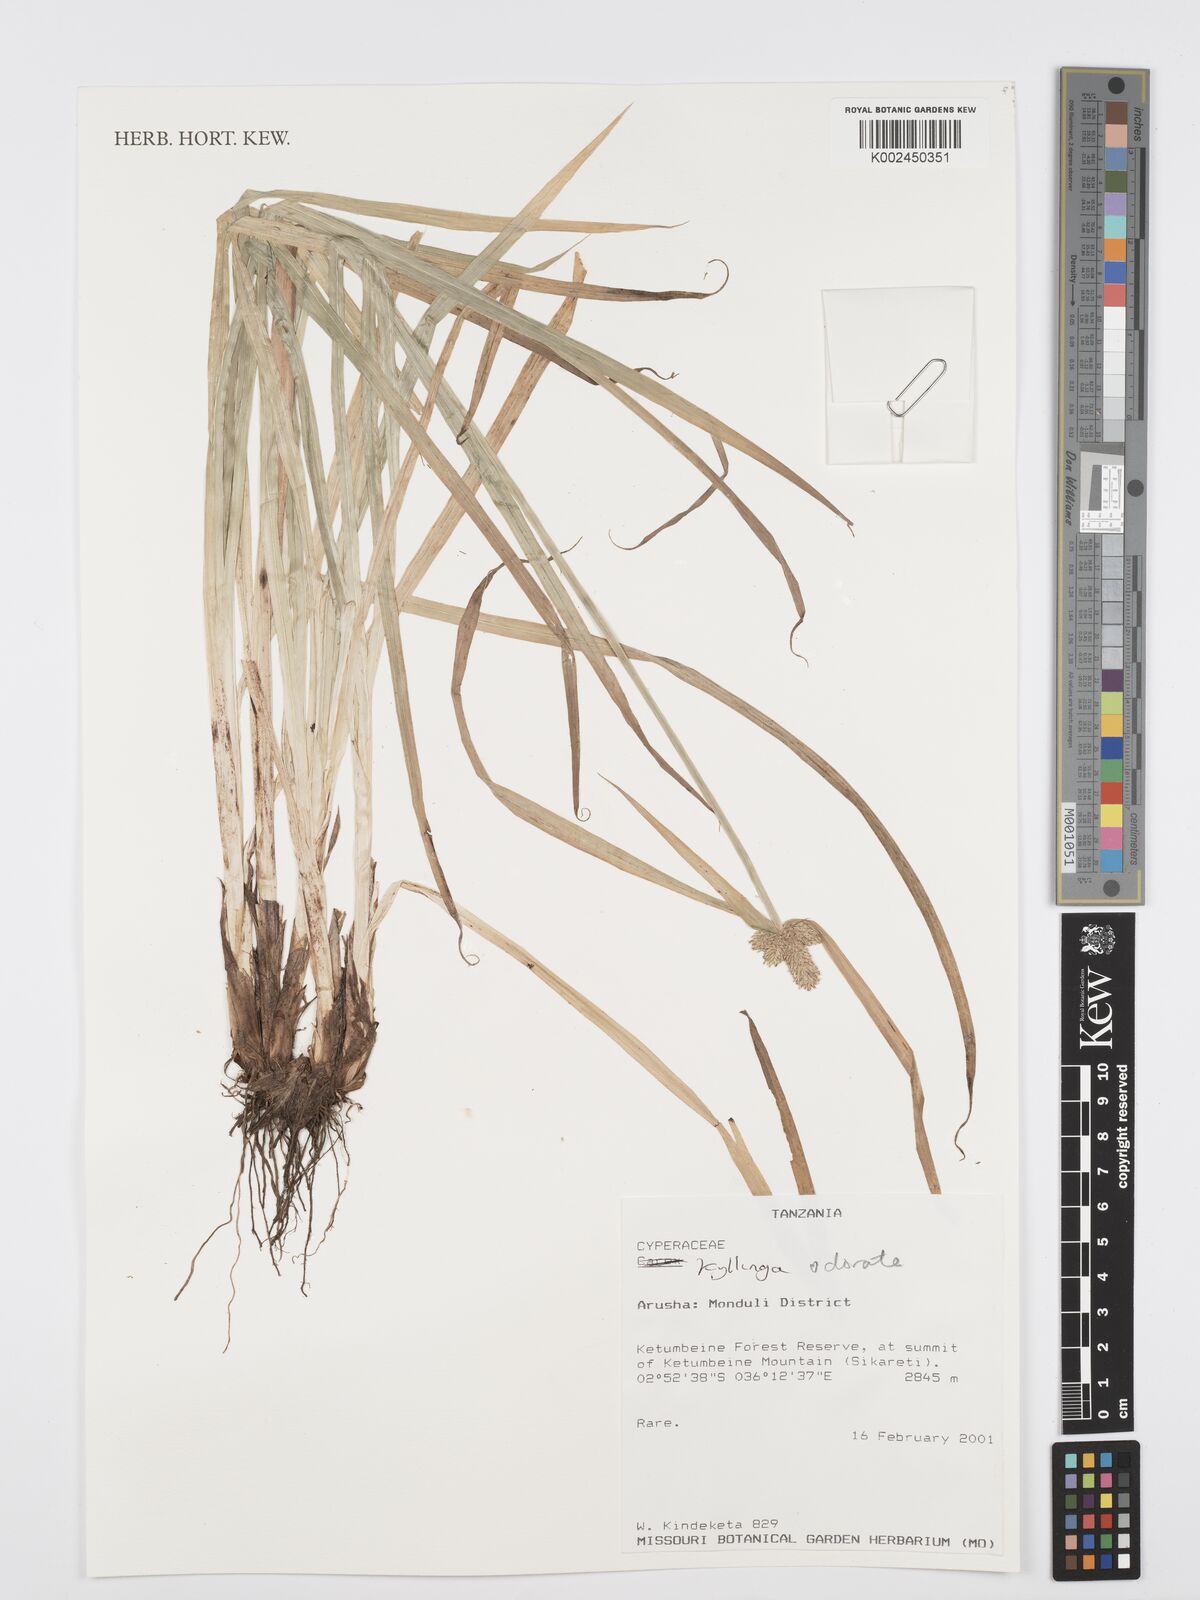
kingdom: Plantae
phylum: Tracheophyta
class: Liliopsida
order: Poales
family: Cyperaceae
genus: Cyperus
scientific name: Cyperus
